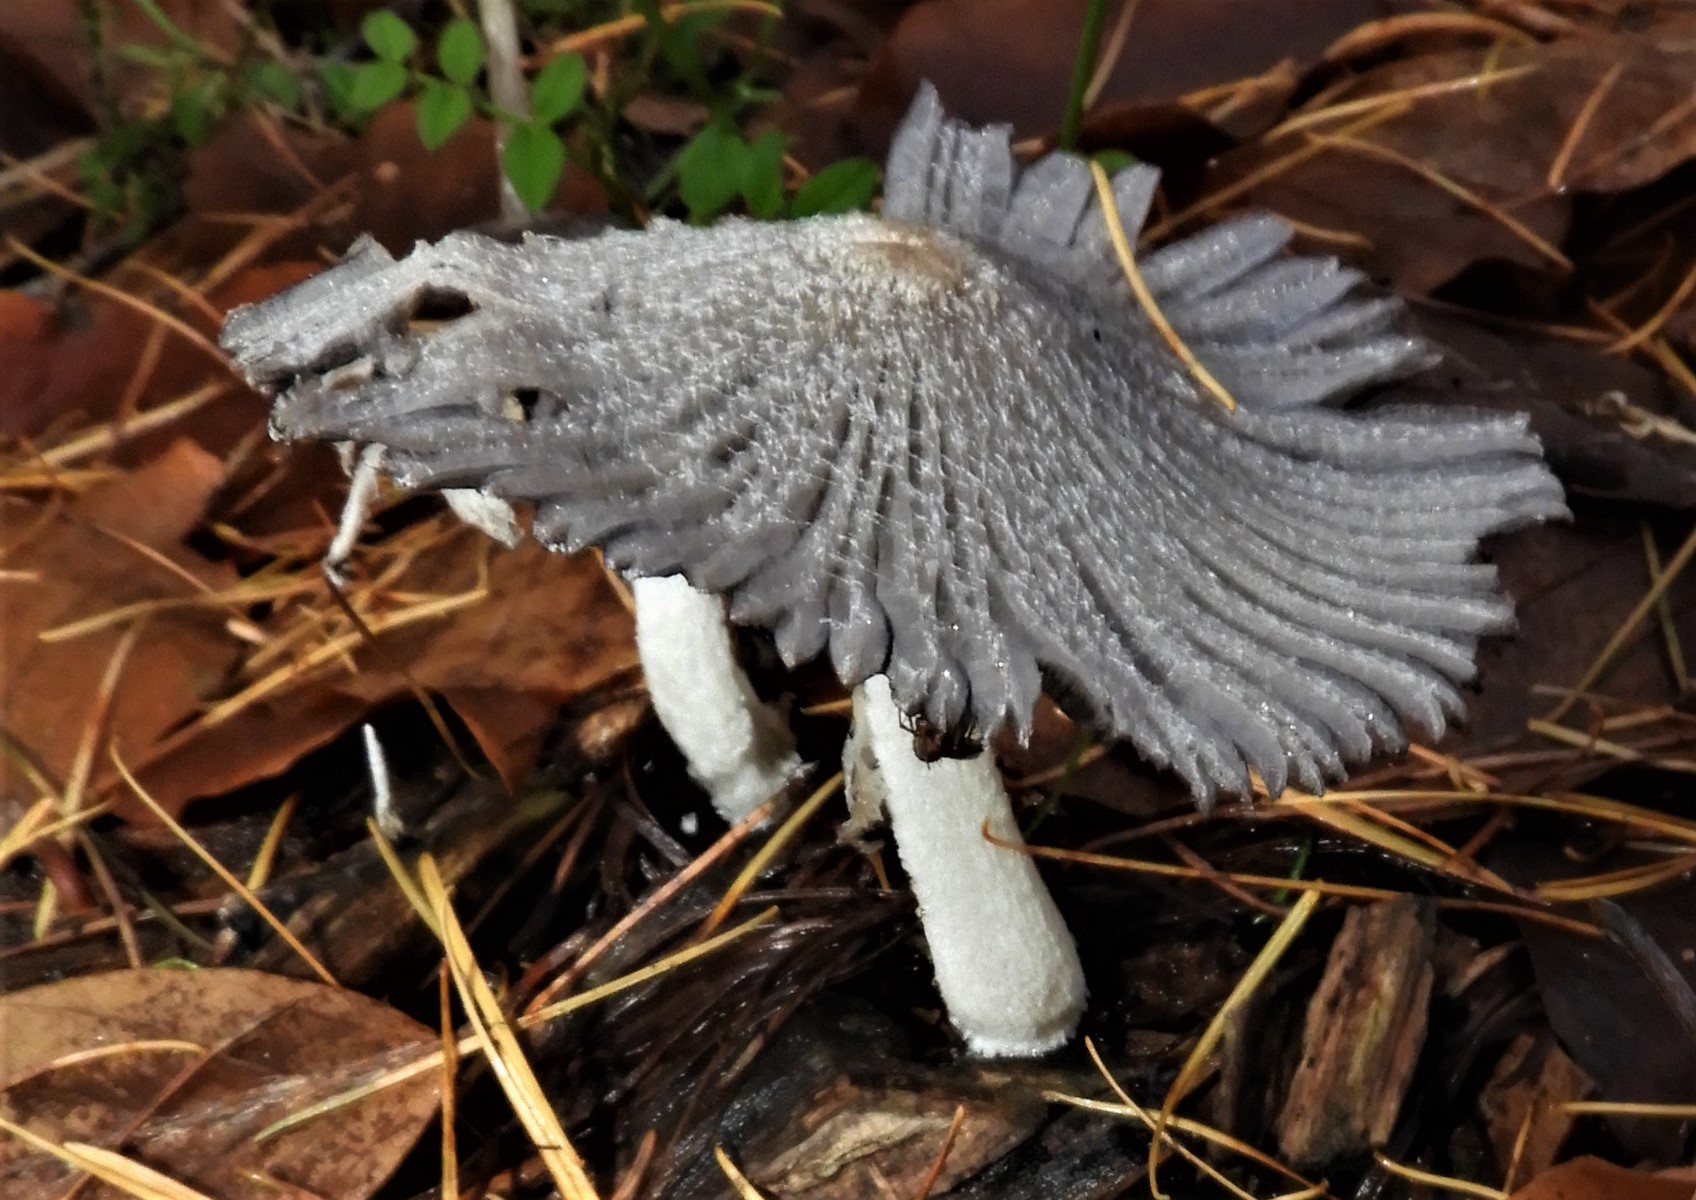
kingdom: Fungi
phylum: Basidiomycota
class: Agaricomycetes
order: Agaricales
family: Psathyrellaceae
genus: Coprinopsis
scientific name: Coprinopsis lagopus
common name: dunstokket blækhat
